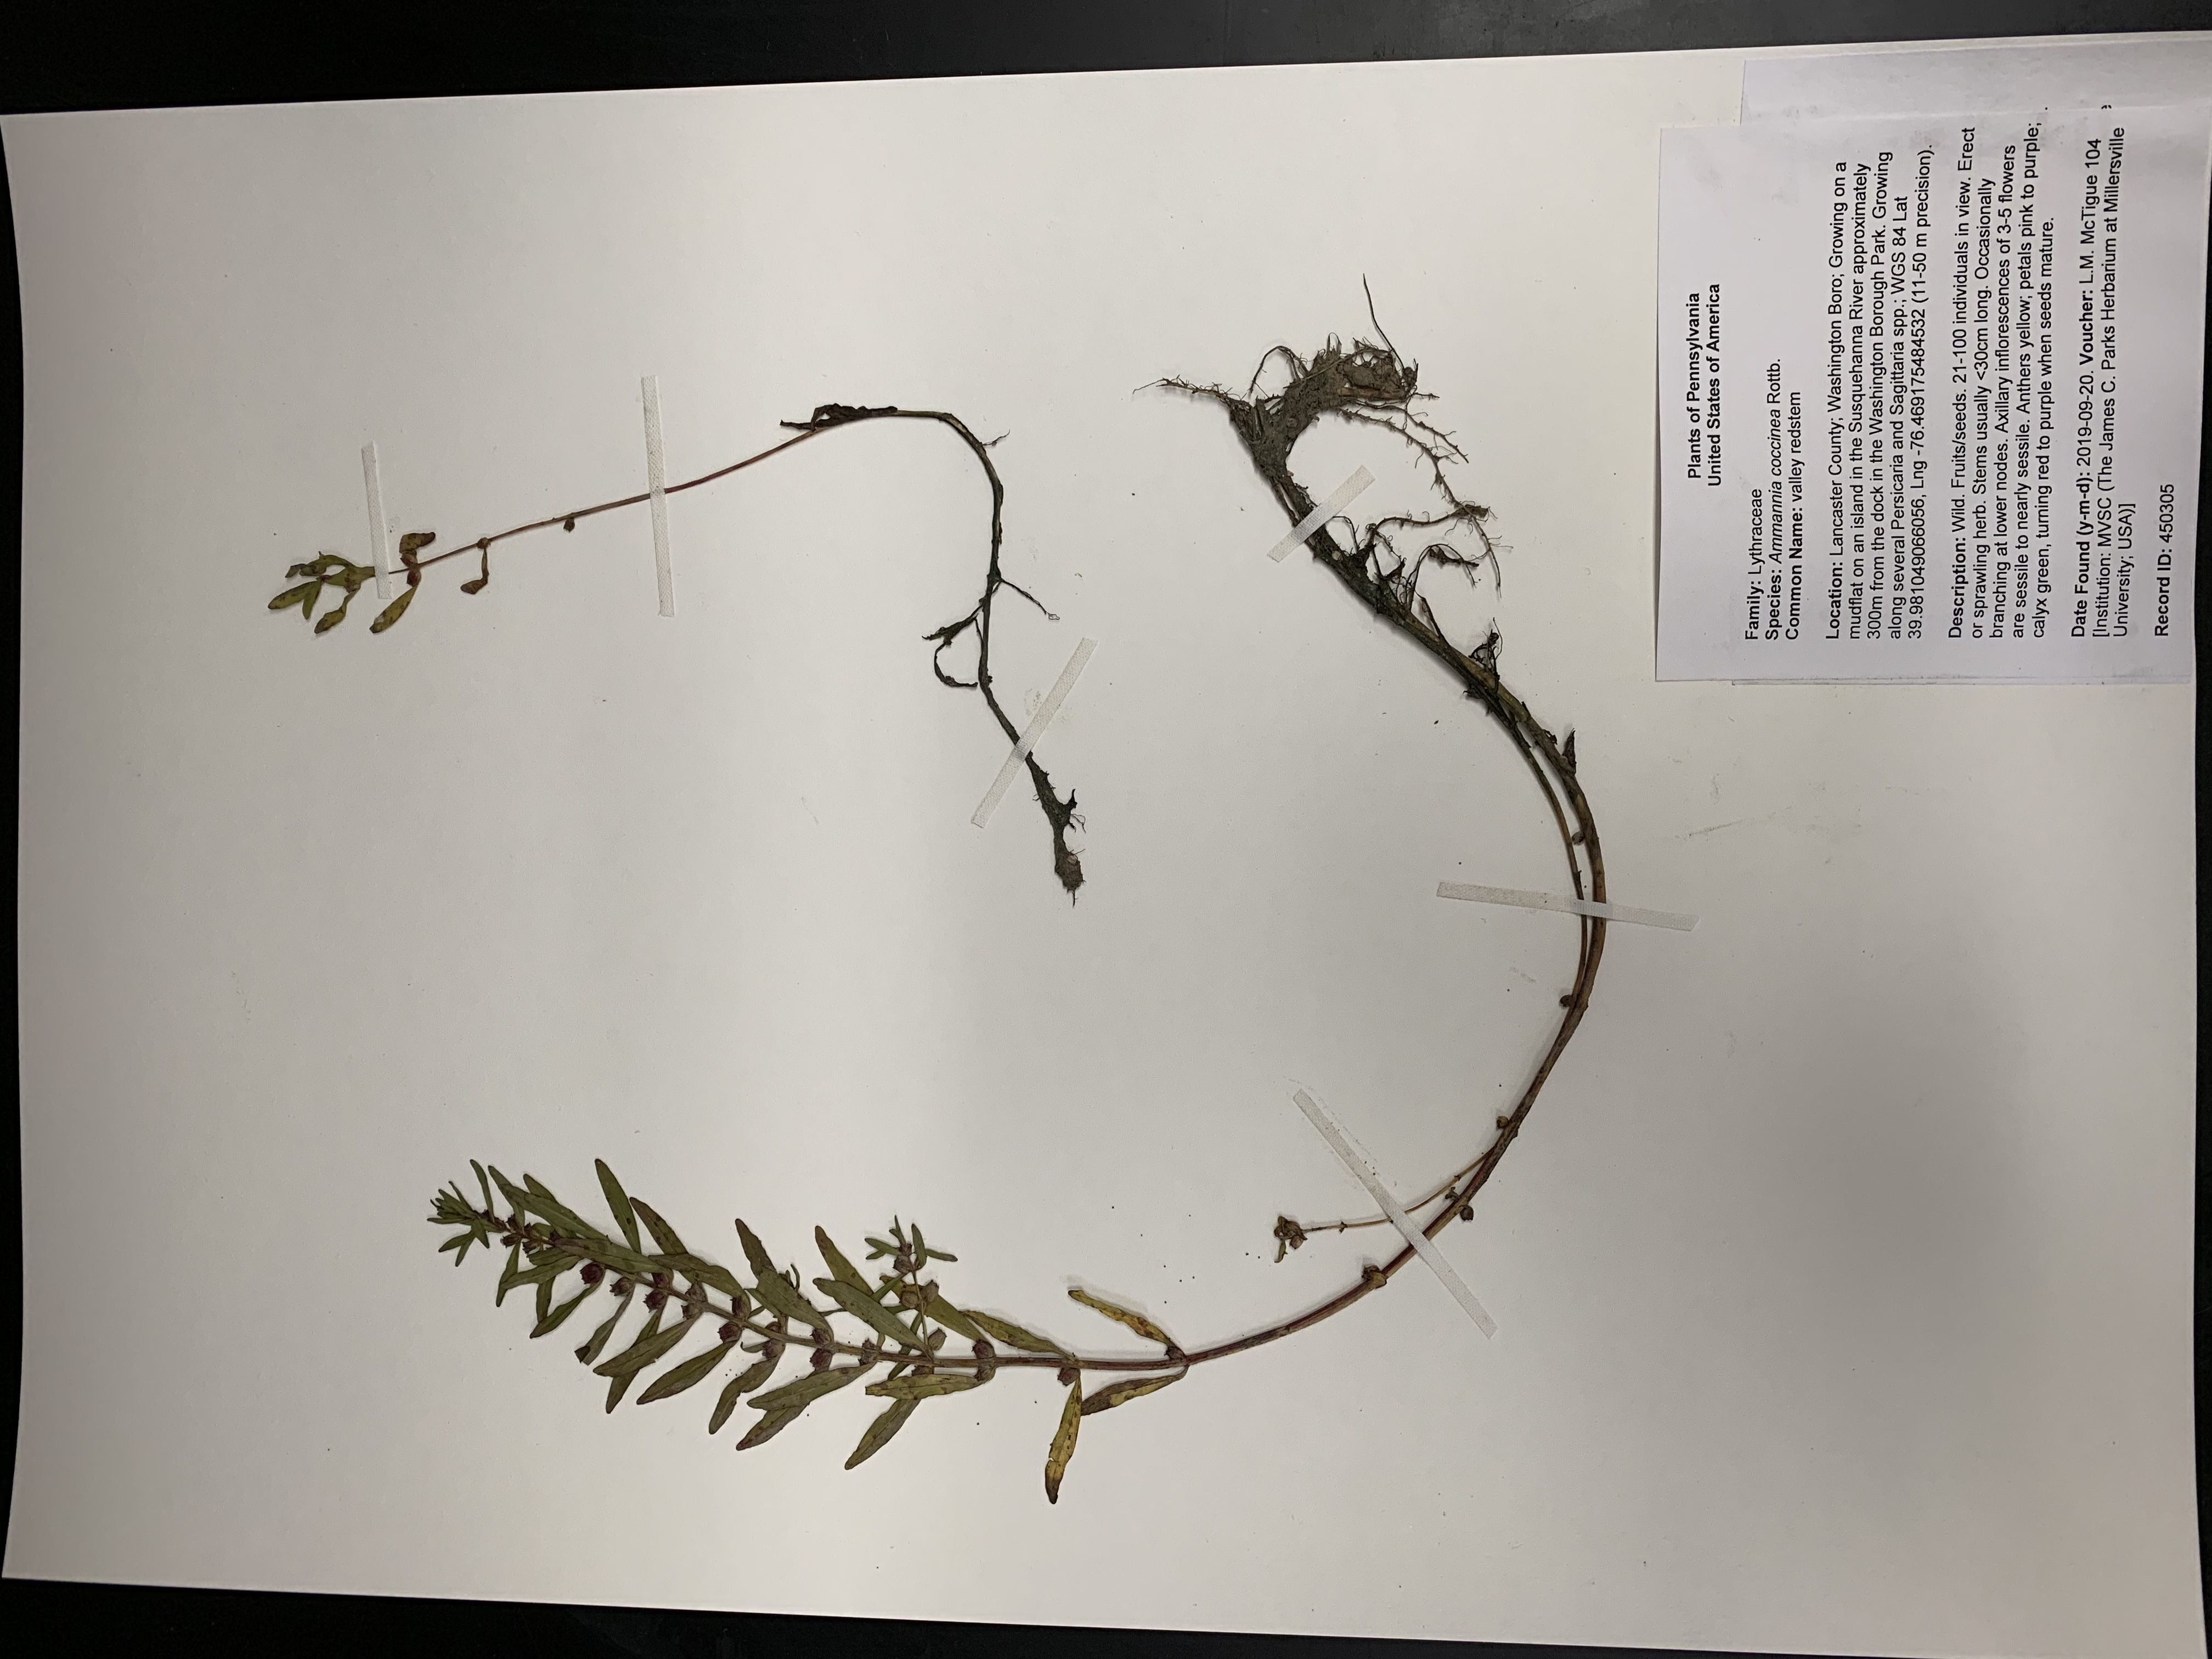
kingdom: Plantae
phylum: Tracheophyta
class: Magnoliopsida
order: Myrtales
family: Lythraceae
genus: Rotala
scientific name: Rotala ramosior
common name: valley redstem
